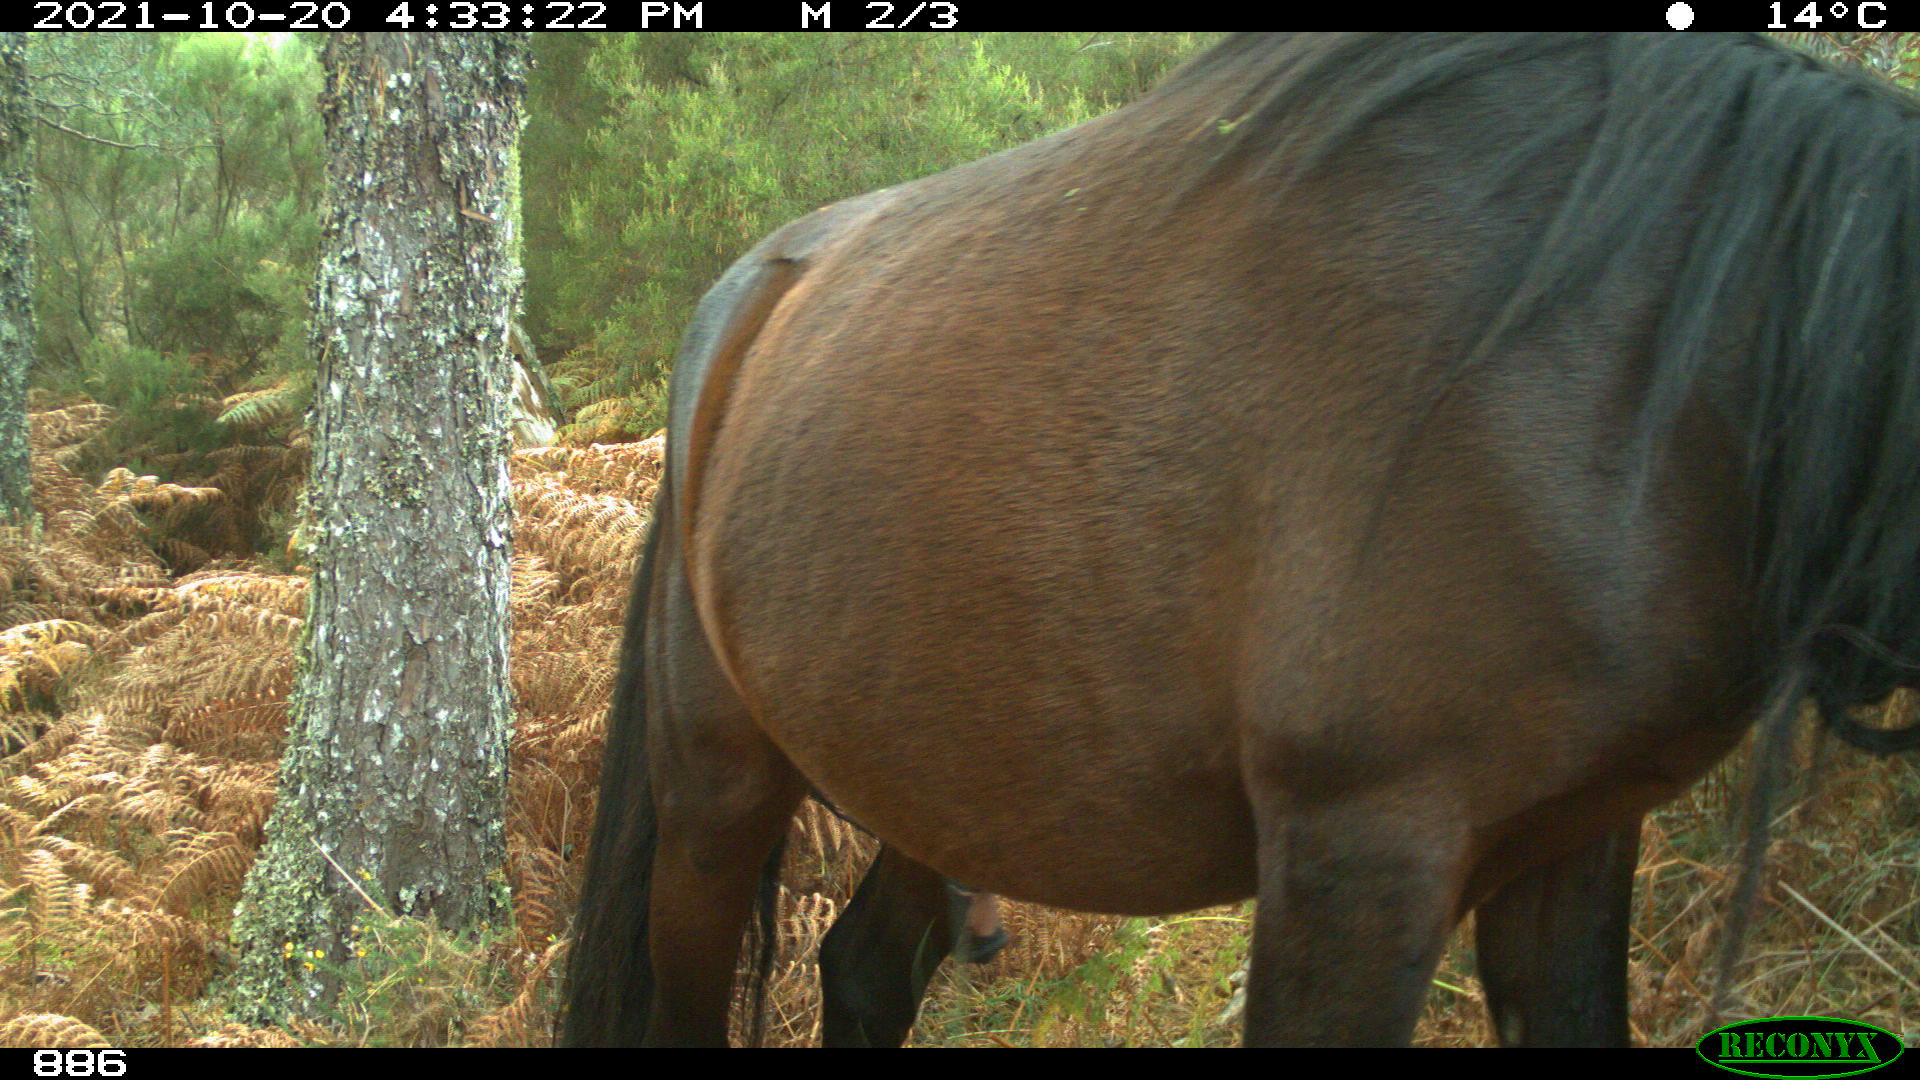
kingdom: Animalia
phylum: Chordata
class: Mammalia
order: Perissodactyla
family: Equidae
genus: Equus
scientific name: Equus caballus
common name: Horse
